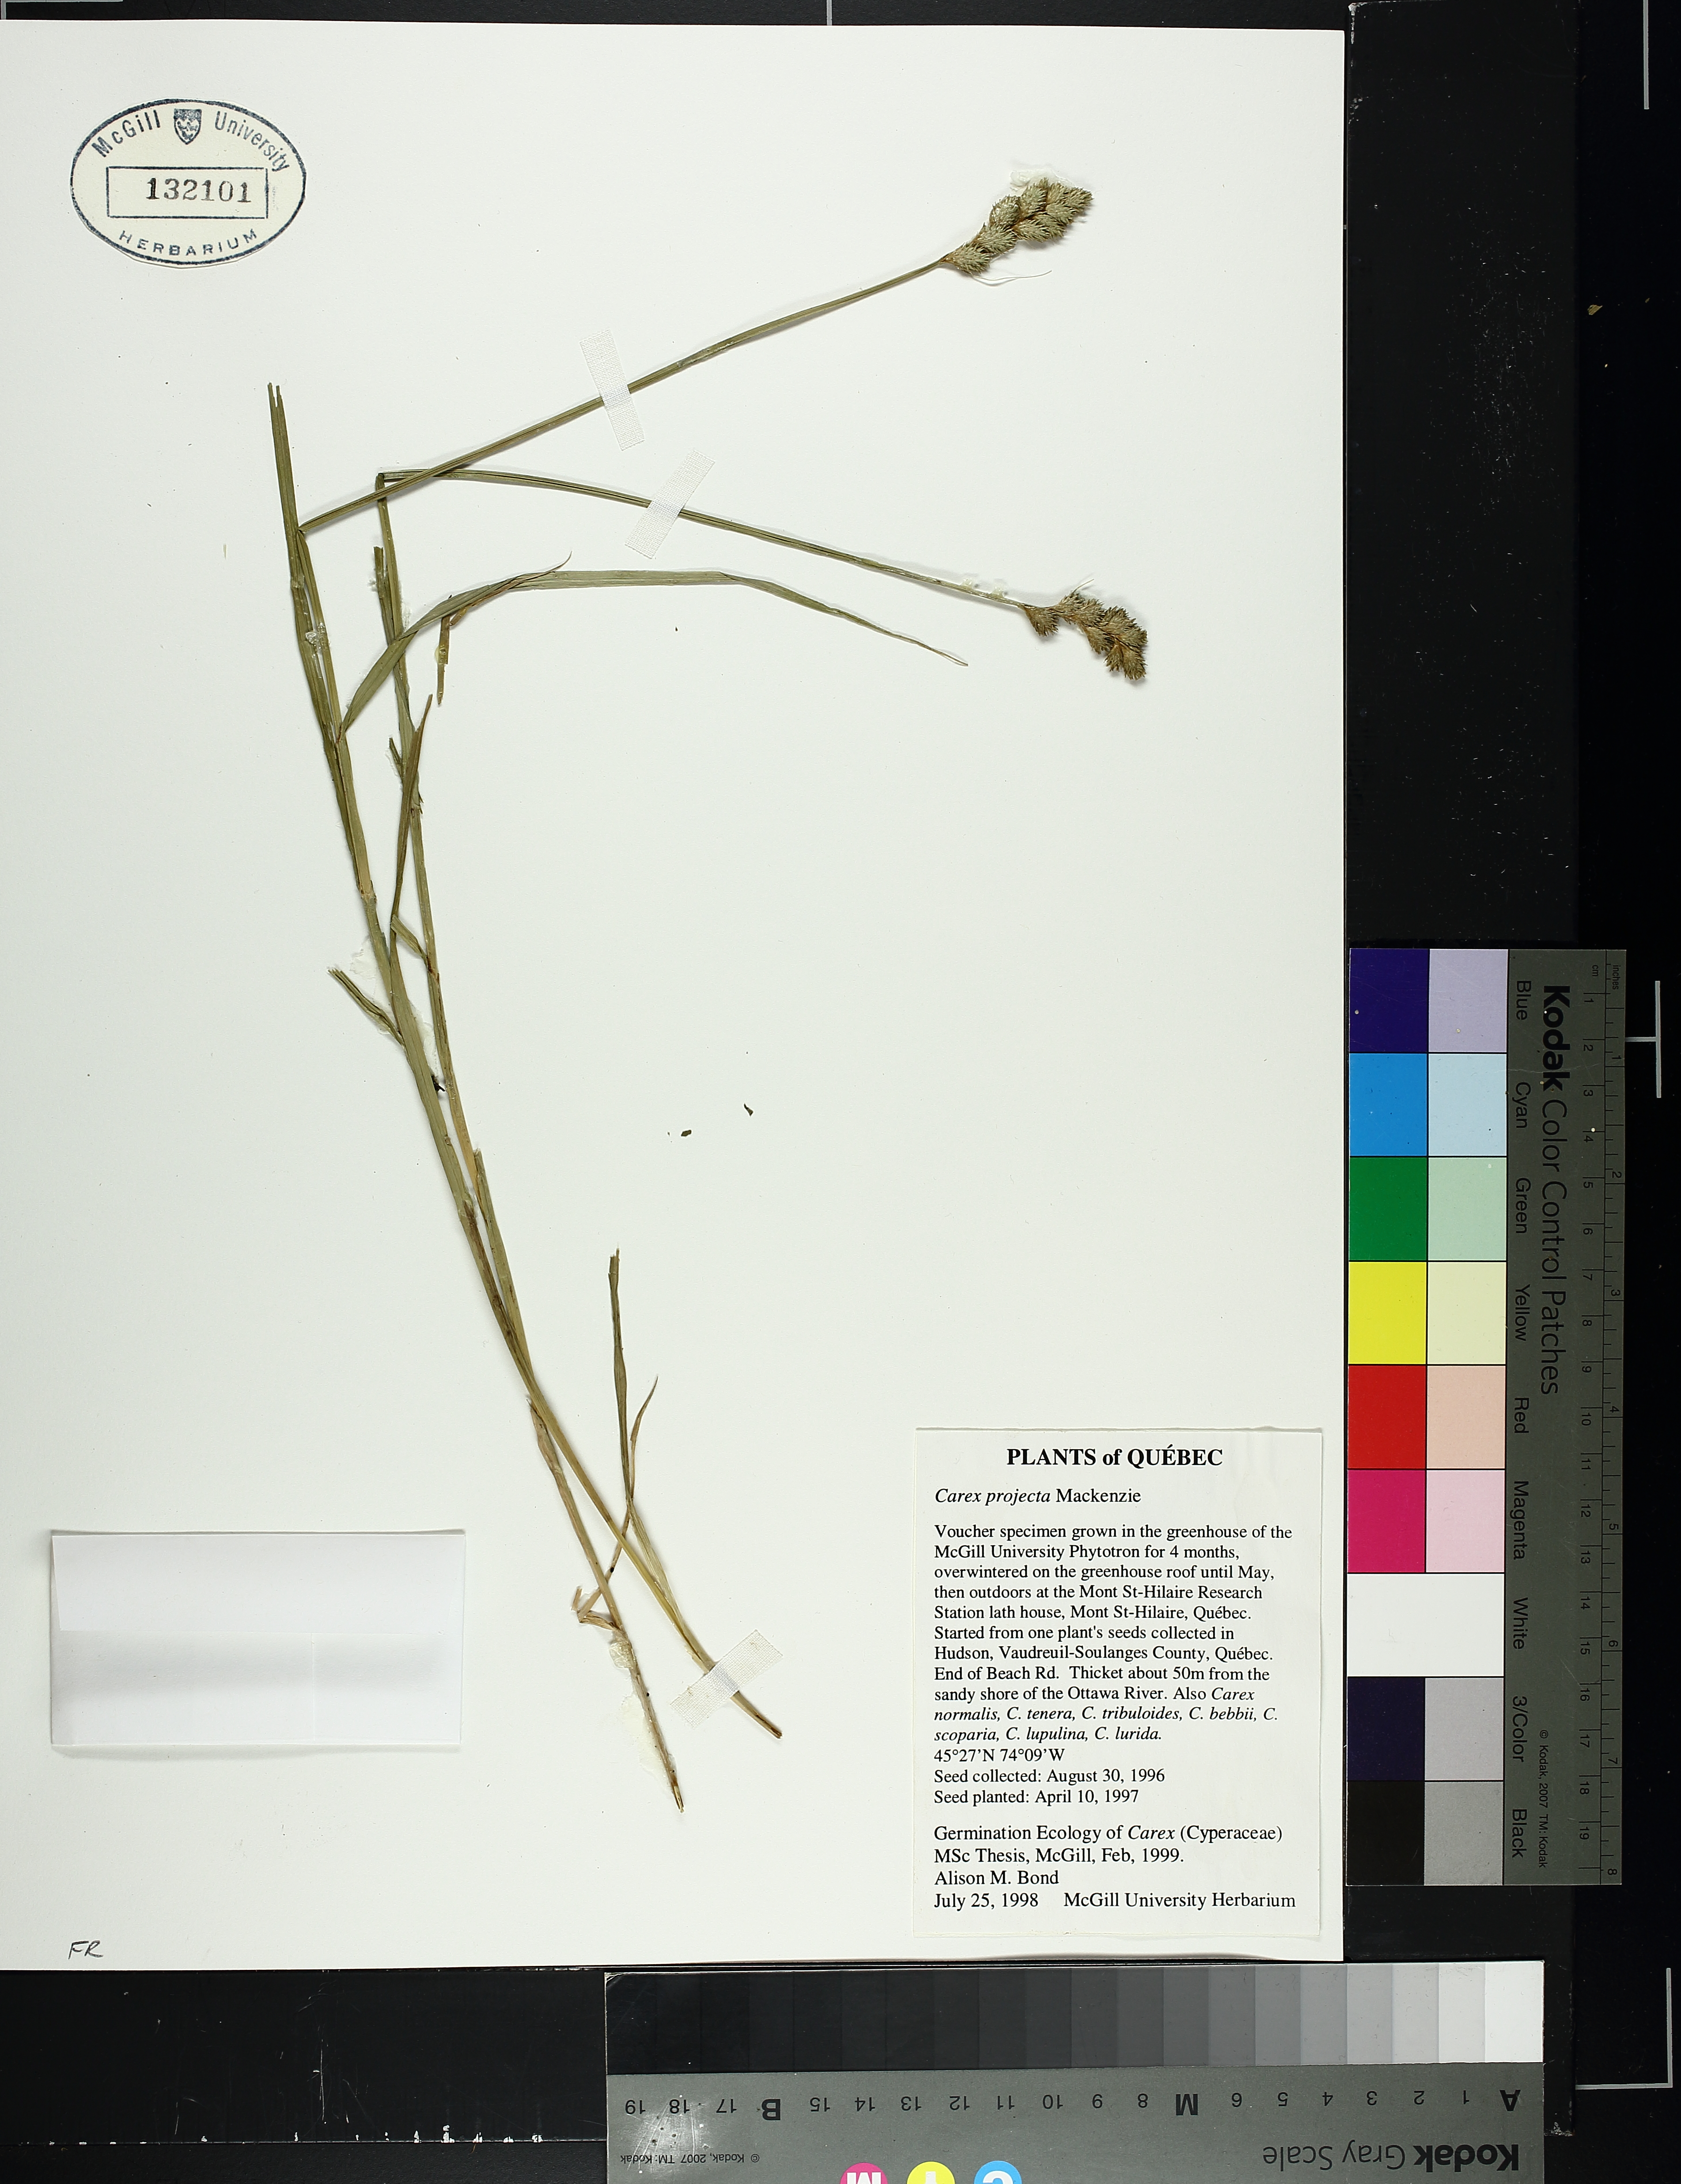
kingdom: Plantae
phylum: Tracheophyta
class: Liliopsida
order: Poales
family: Cyperaceae
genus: Carex
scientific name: Carex projecta
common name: Loose-headed oval sedge
